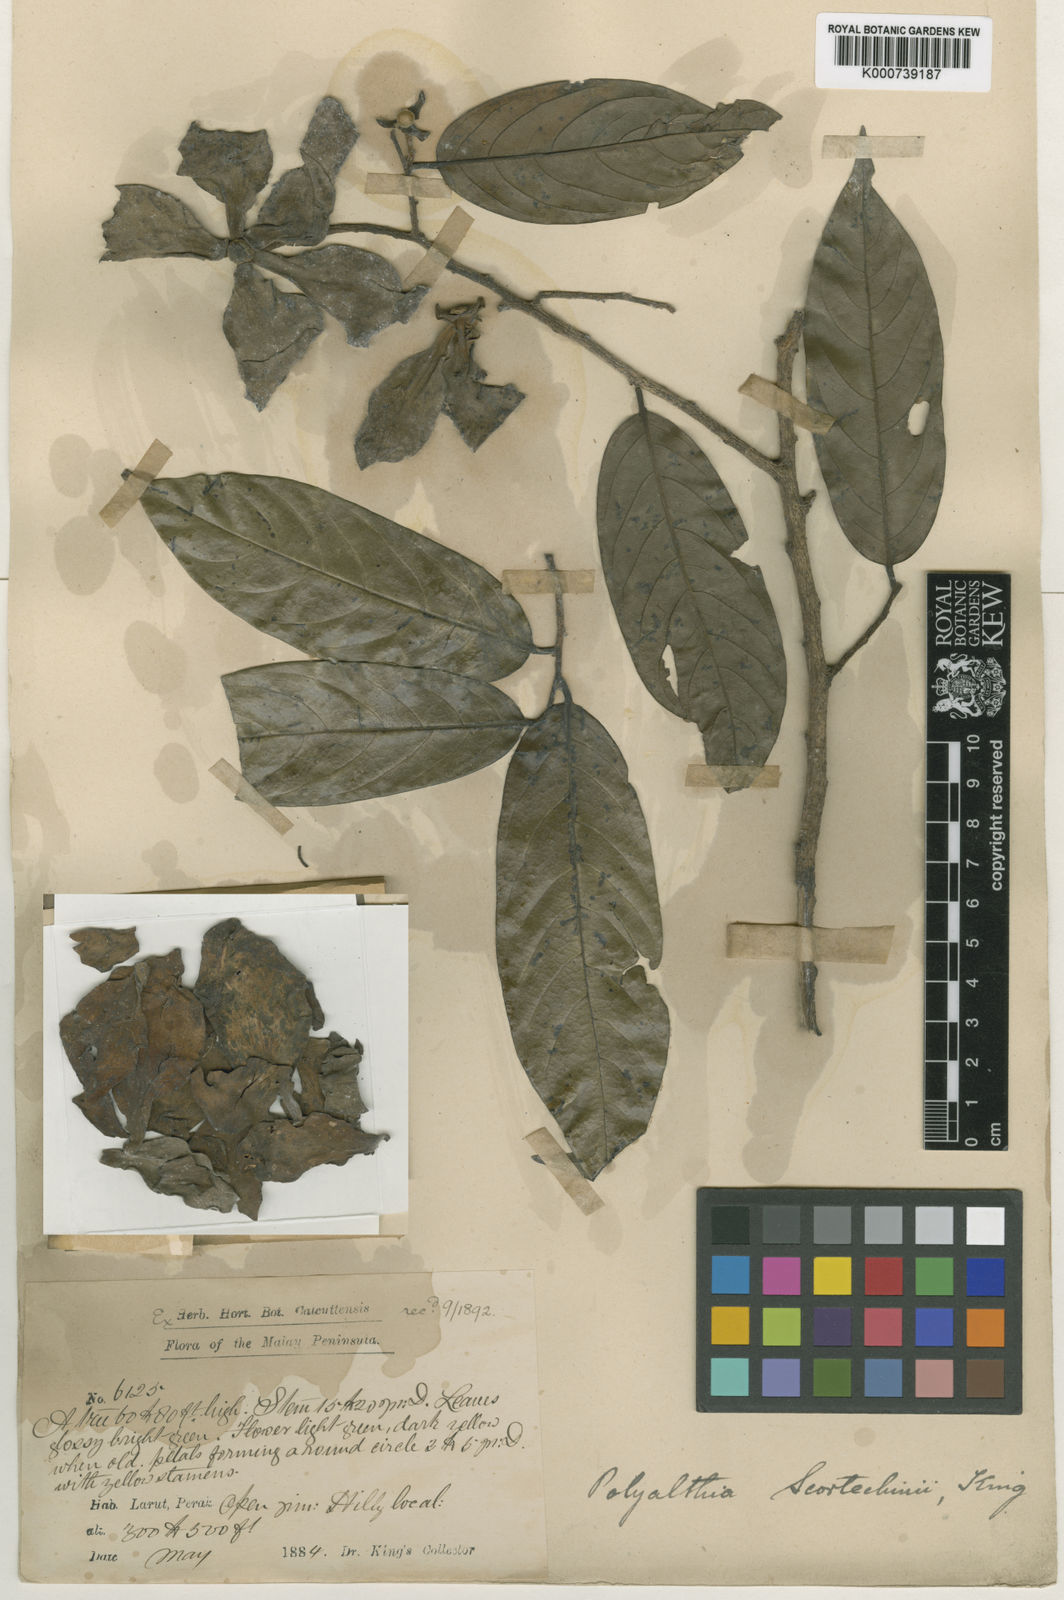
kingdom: Plantae
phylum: Tracheophyta
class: Magnoliopsida
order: Magnoliales
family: Annonaceae
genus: Hubera
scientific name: Hubera rumphii
